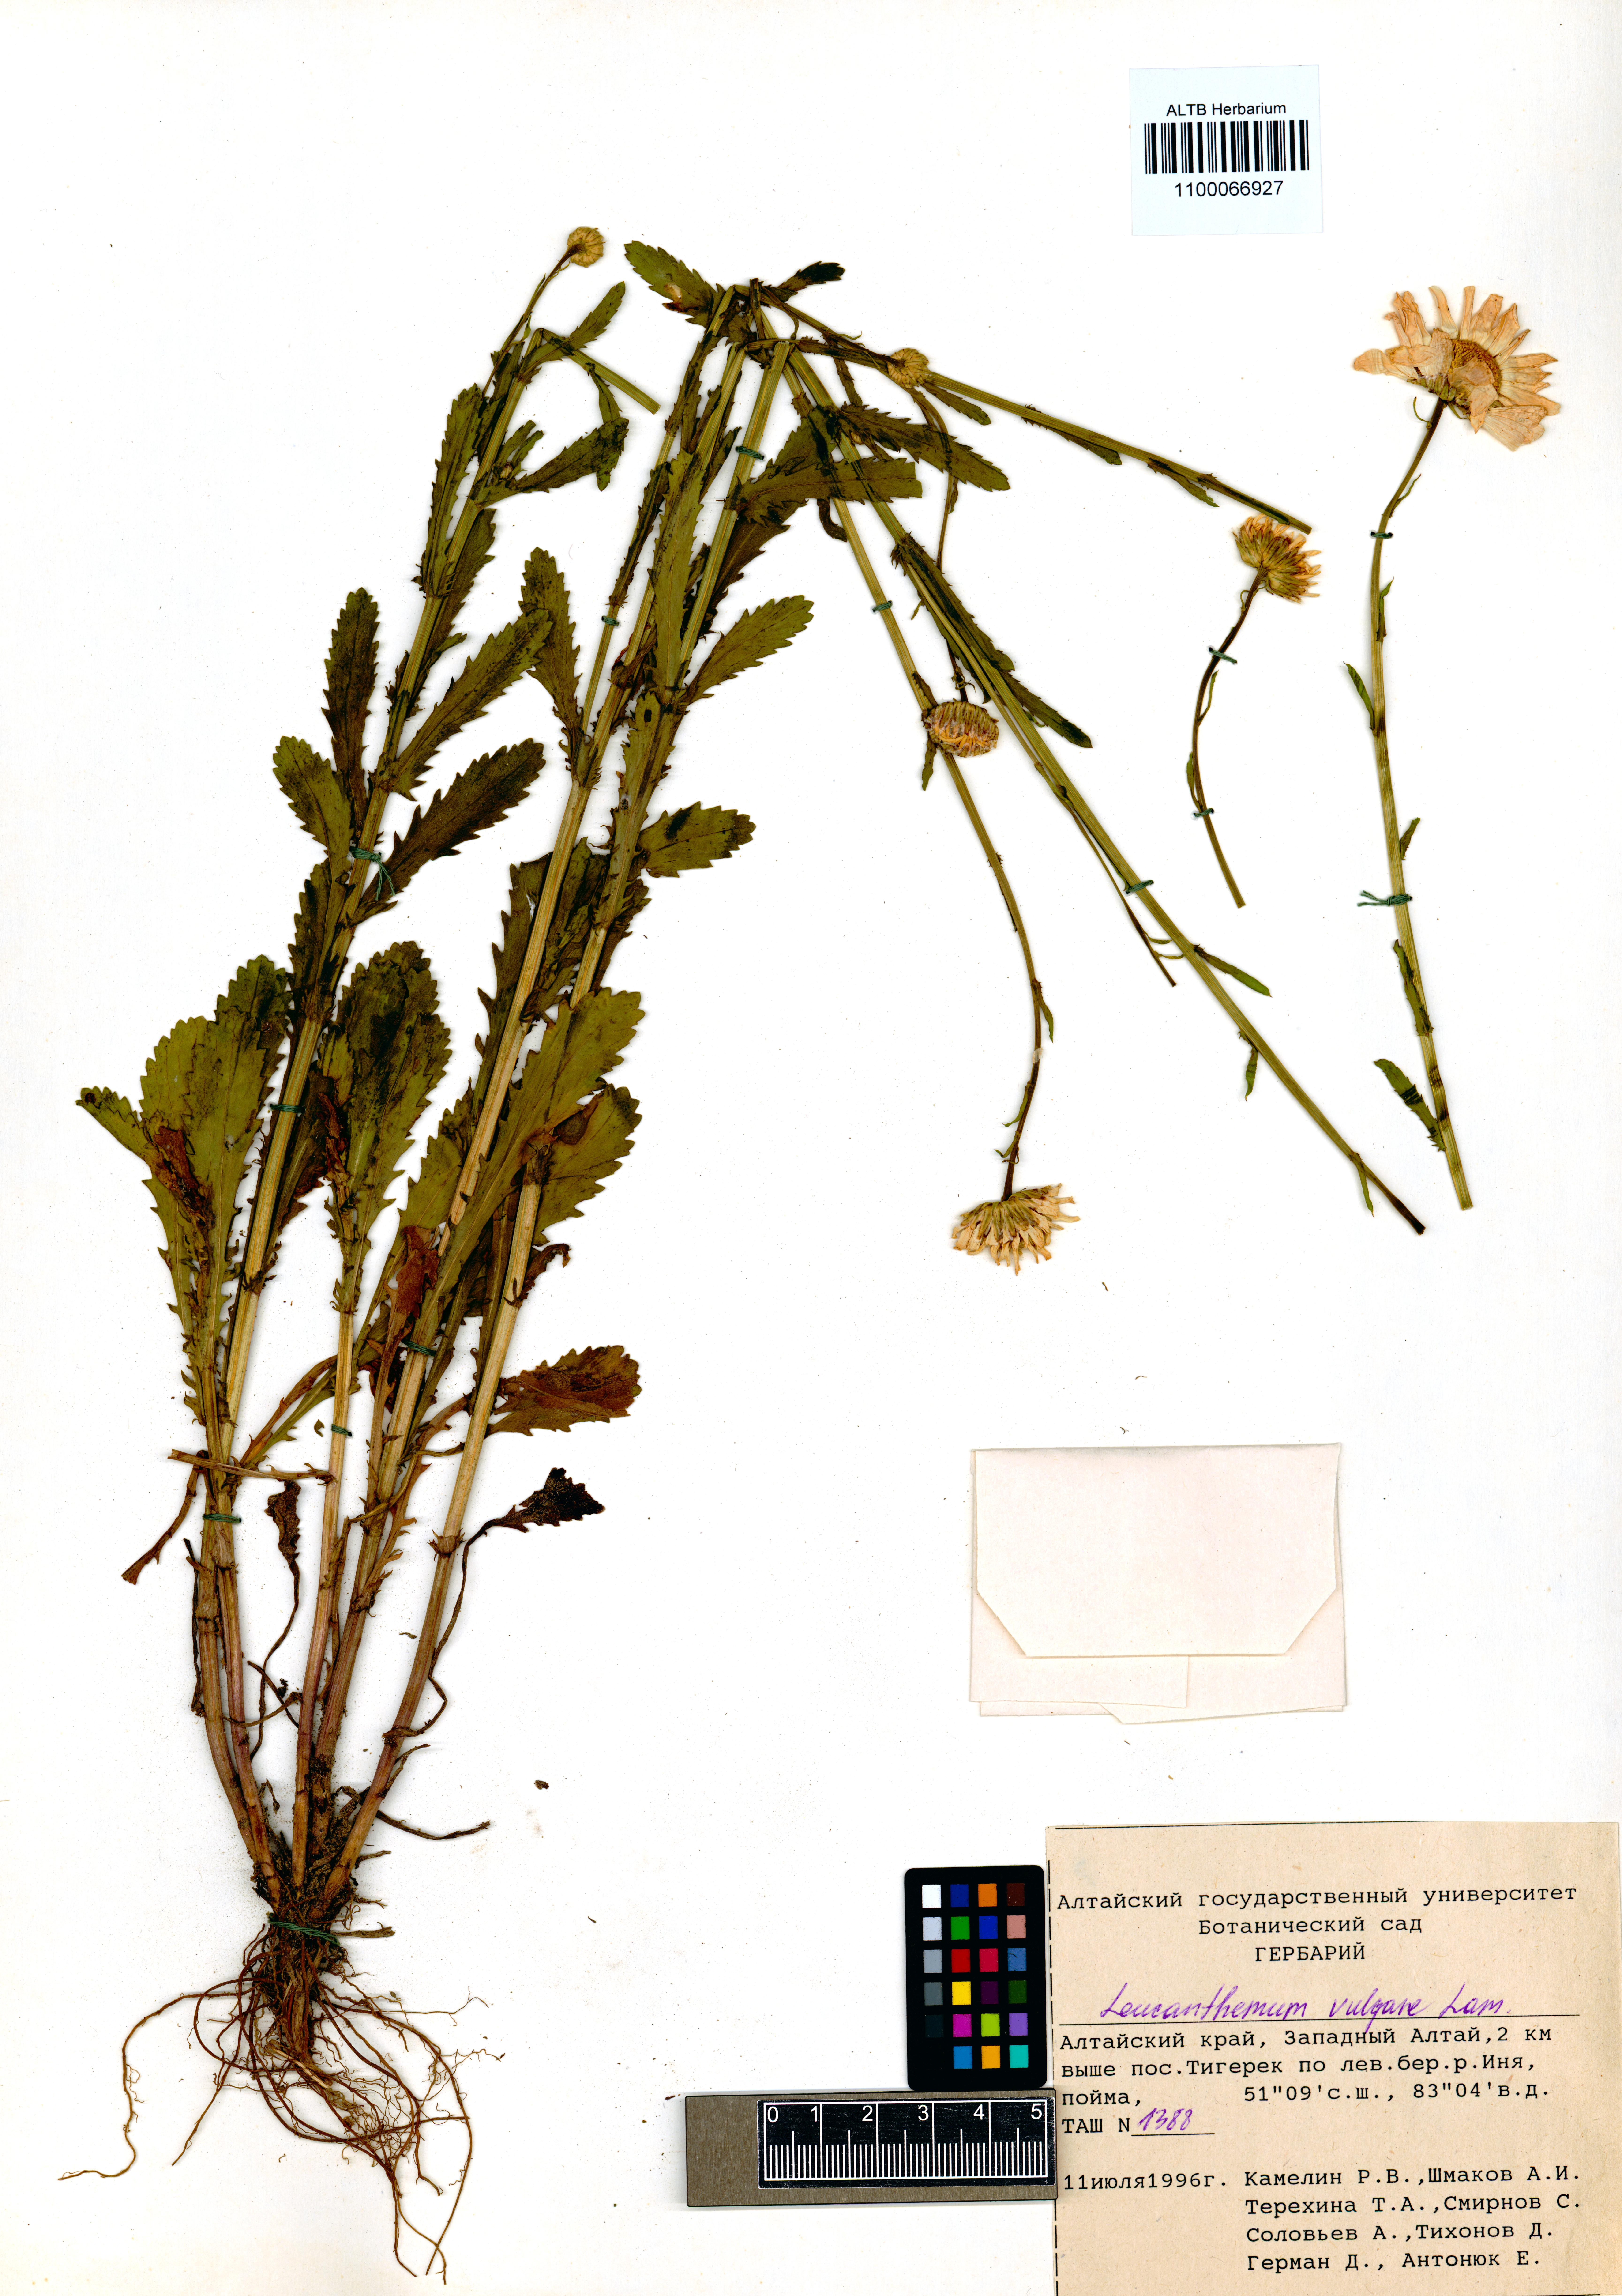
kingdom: Plantae
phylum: Tracheophyta
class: Magnoliopsida
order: Asterales
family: Asteraceae
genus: Leucanthemum
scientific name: Leucanthemum vulgare
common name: Oxeye daisy
